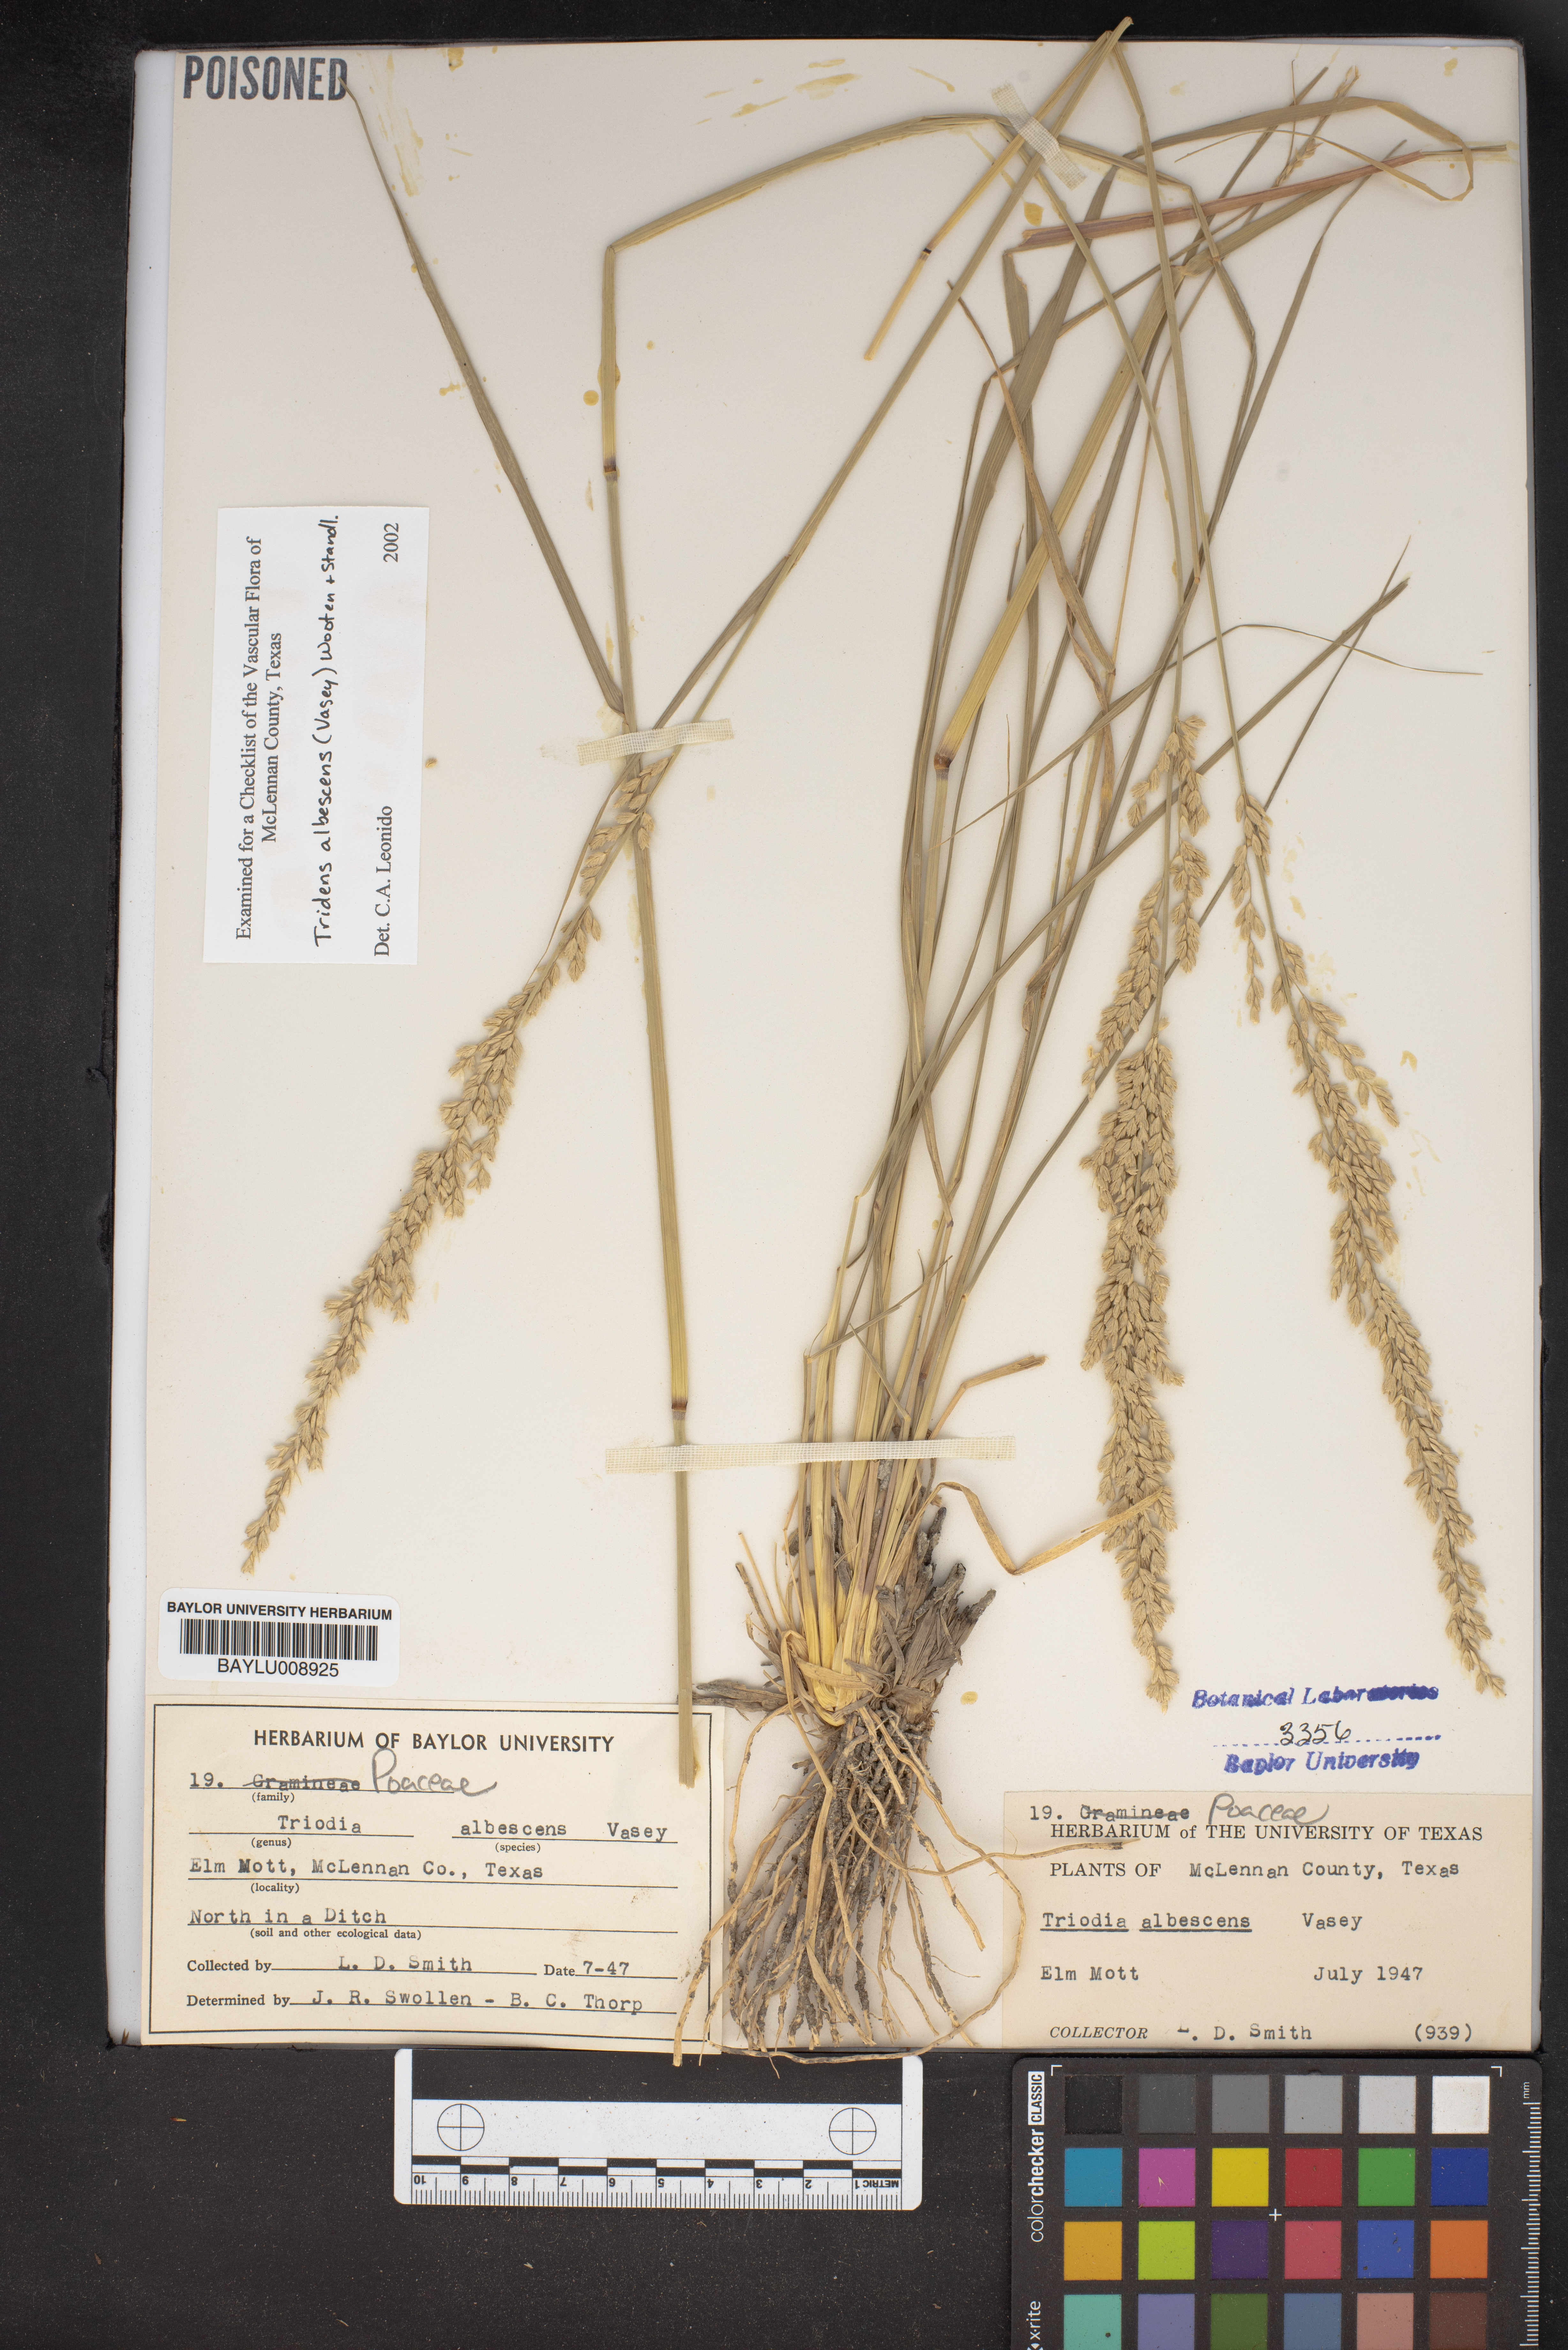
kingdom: Plantae
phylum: Tracheophyta
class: Liliopsida
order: Poales
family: Poaceae
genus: Tridens
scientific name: Tridens albescens
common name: White tridens
